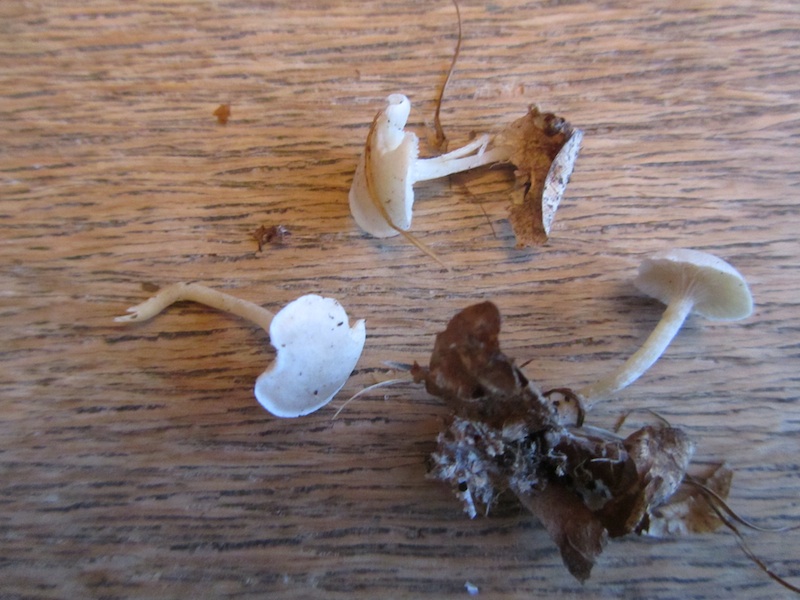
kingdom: Fungi
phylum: Basidiomycota
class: Agaricomycetes
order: Agaricales
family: Tricholomataceae
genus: Leucocybe
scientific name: Leucocybe candicans
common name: kridt-tragthat
